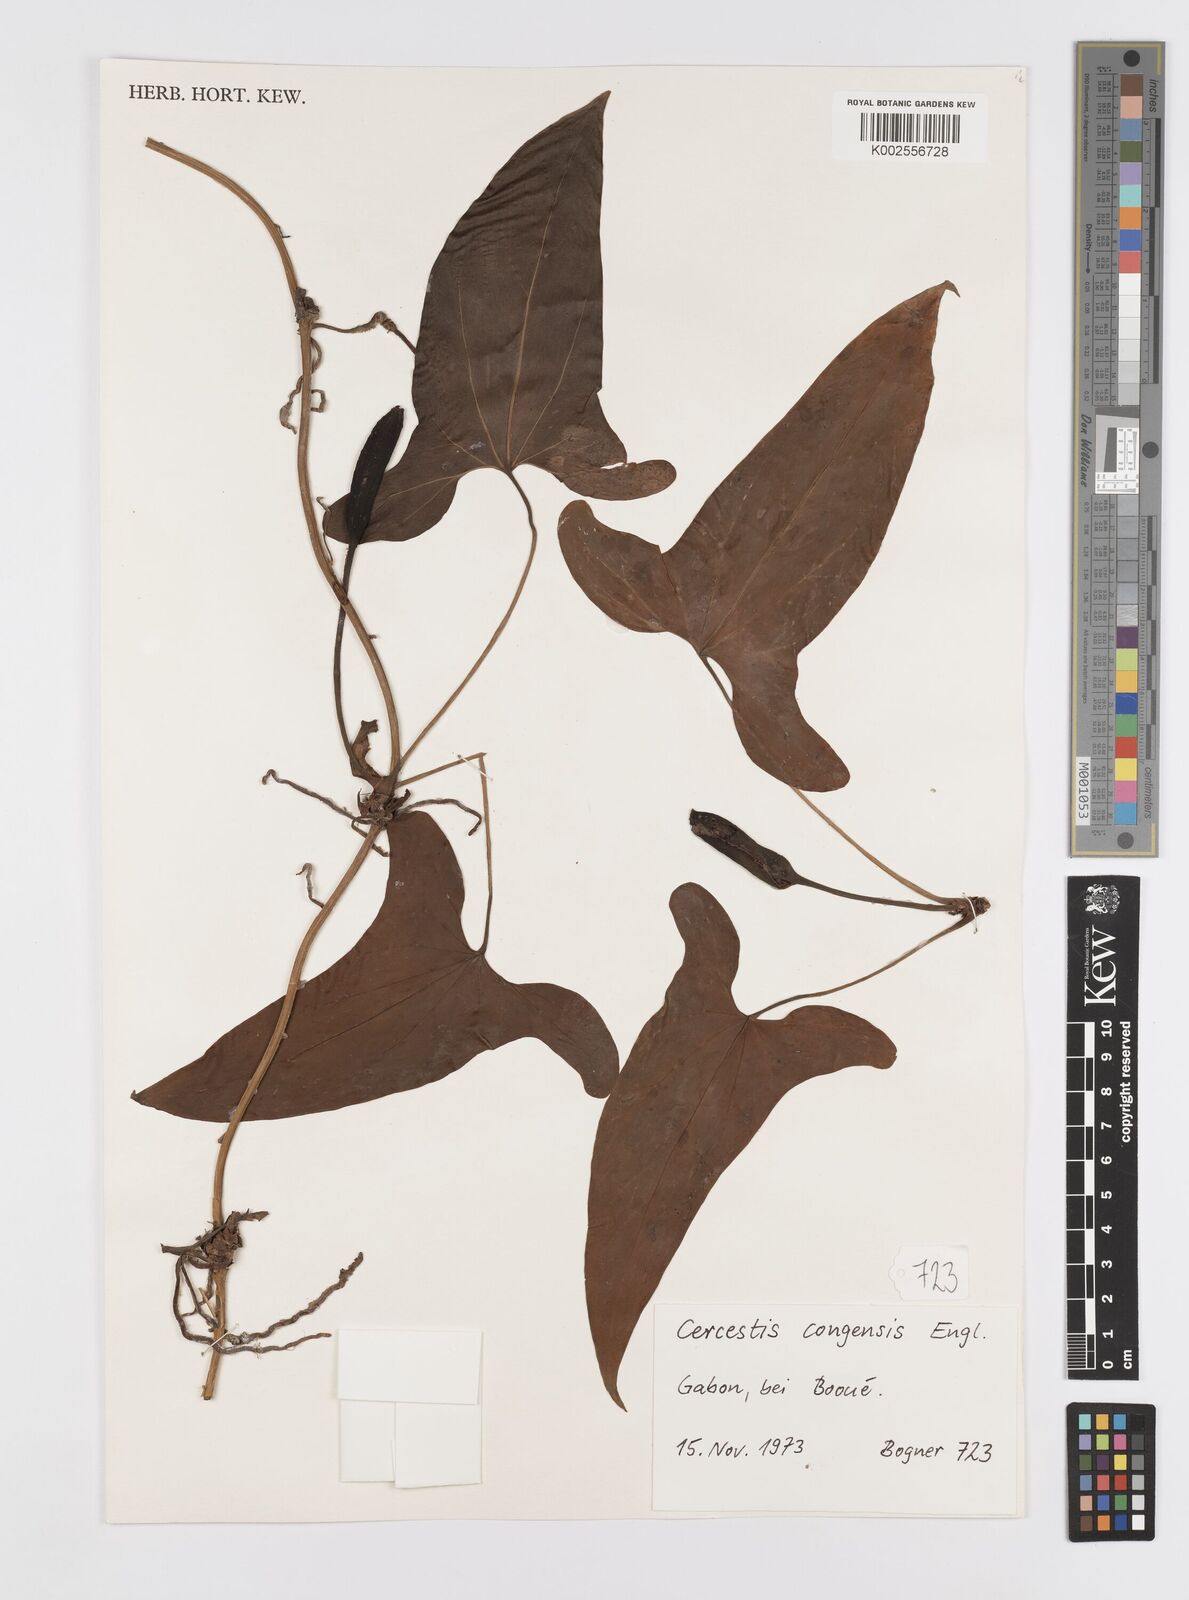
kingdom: Plantae
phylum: Tracheophyta
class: Liliopsida
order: Alismatales
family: Araceae
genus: Cercestis
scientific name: Cercestis congoensis
